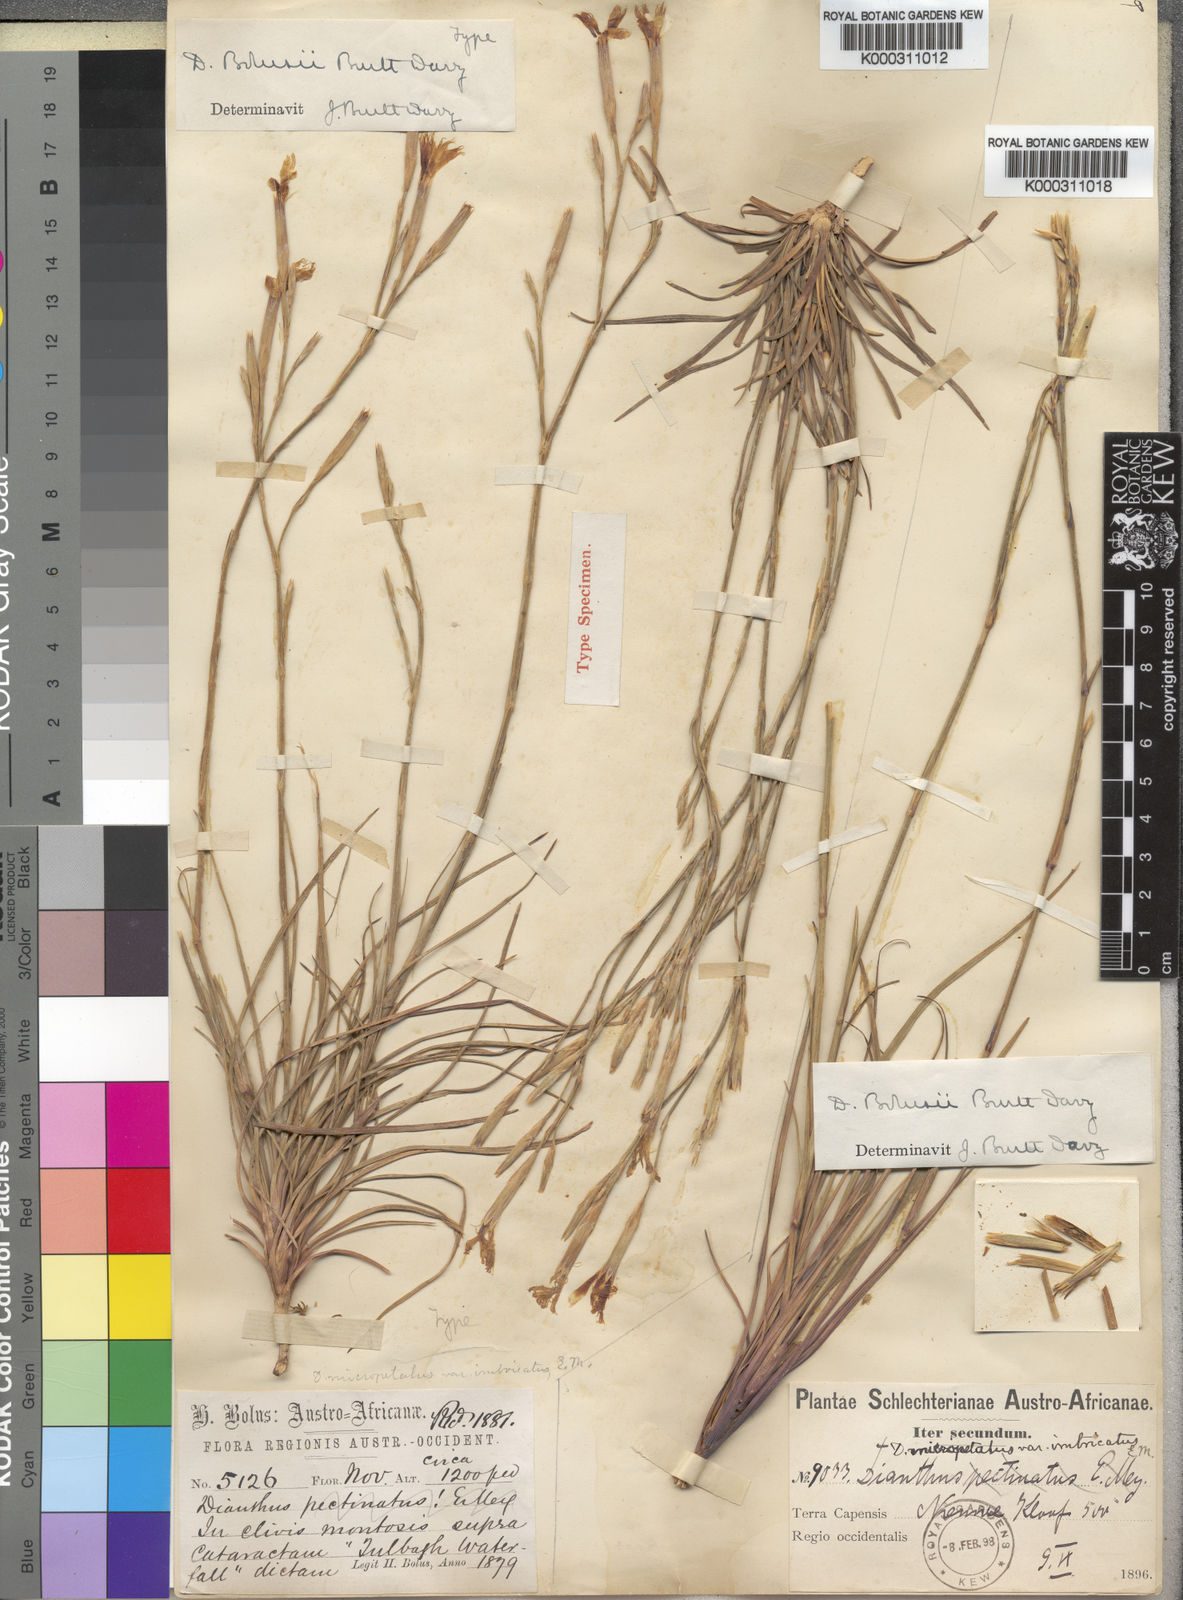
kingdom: Plantae
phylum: Tracheophyta
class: Magnoliopsida
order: Caryophyllales
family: Caryophyllaceae
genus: Dianthus
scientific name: Dianthus bolusii
